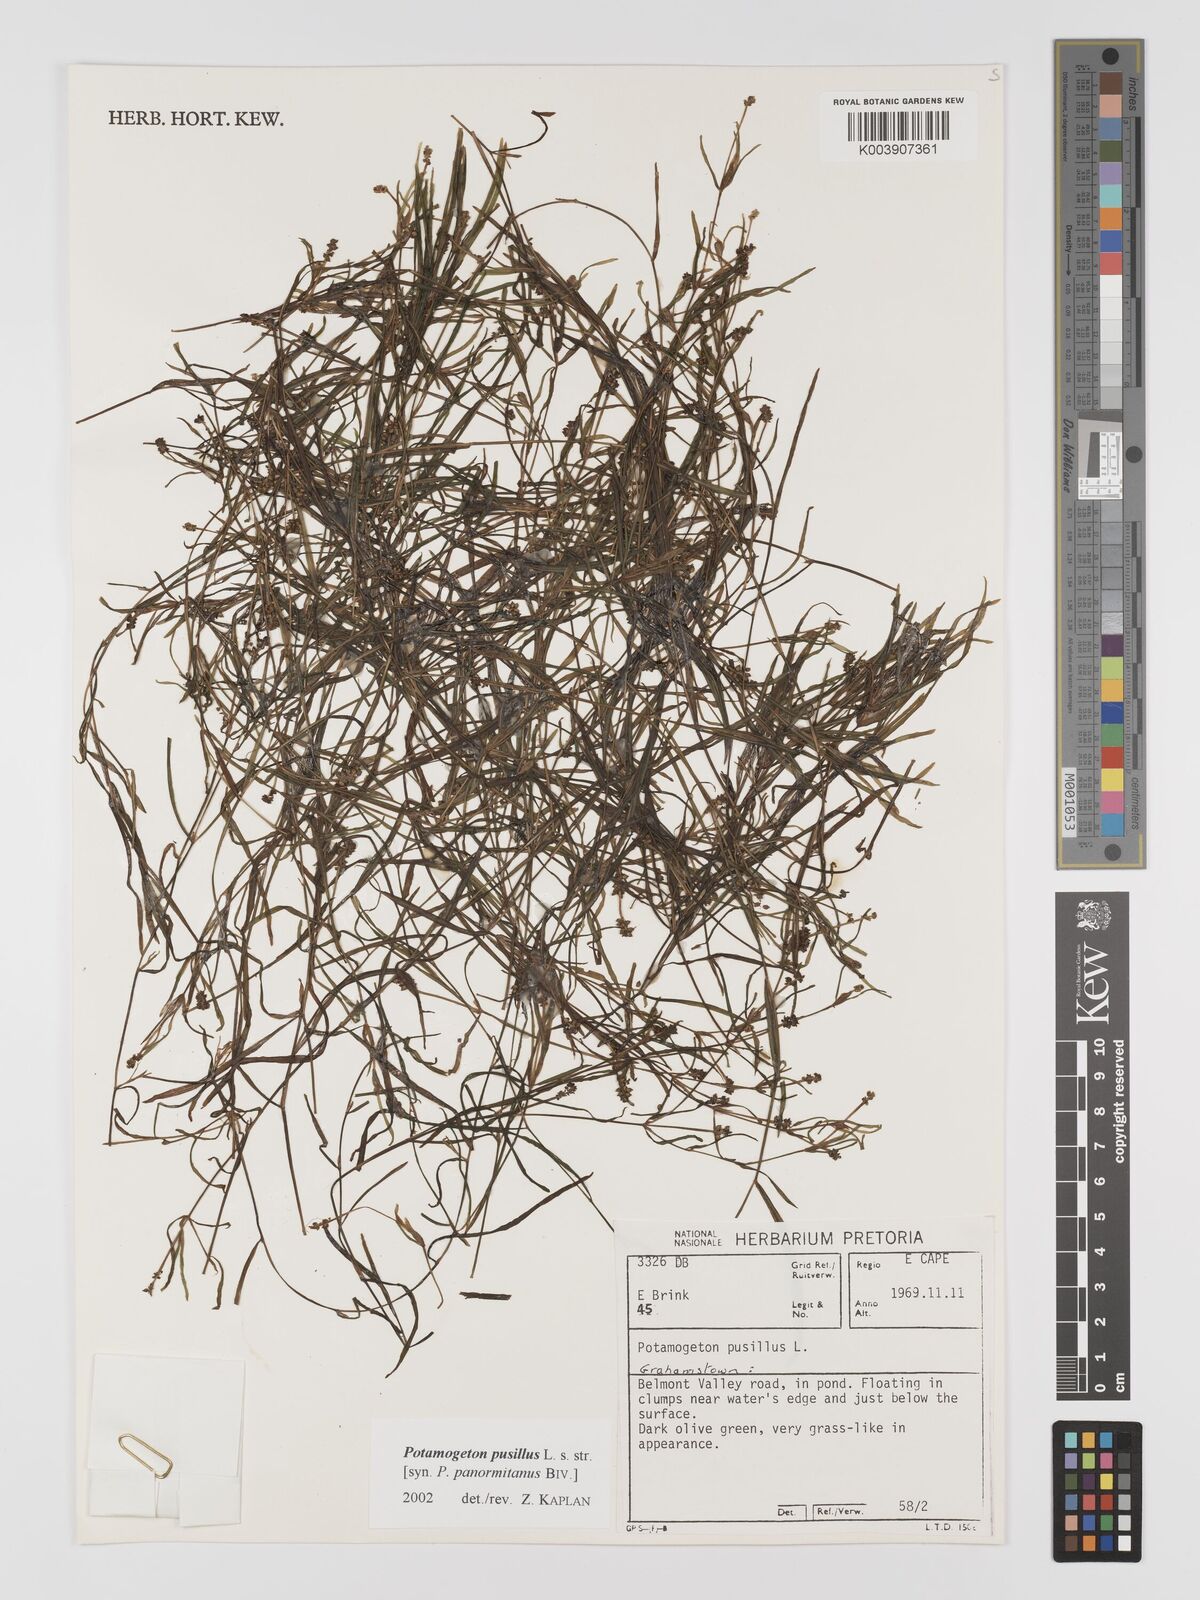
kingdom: Plantae
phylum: Tracheophyta
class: Liliopsida
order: Alismatales
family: Potamogetonaceae
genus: Potamogeton
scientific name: Potamogeton pusillus
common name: Lesser pondweed
